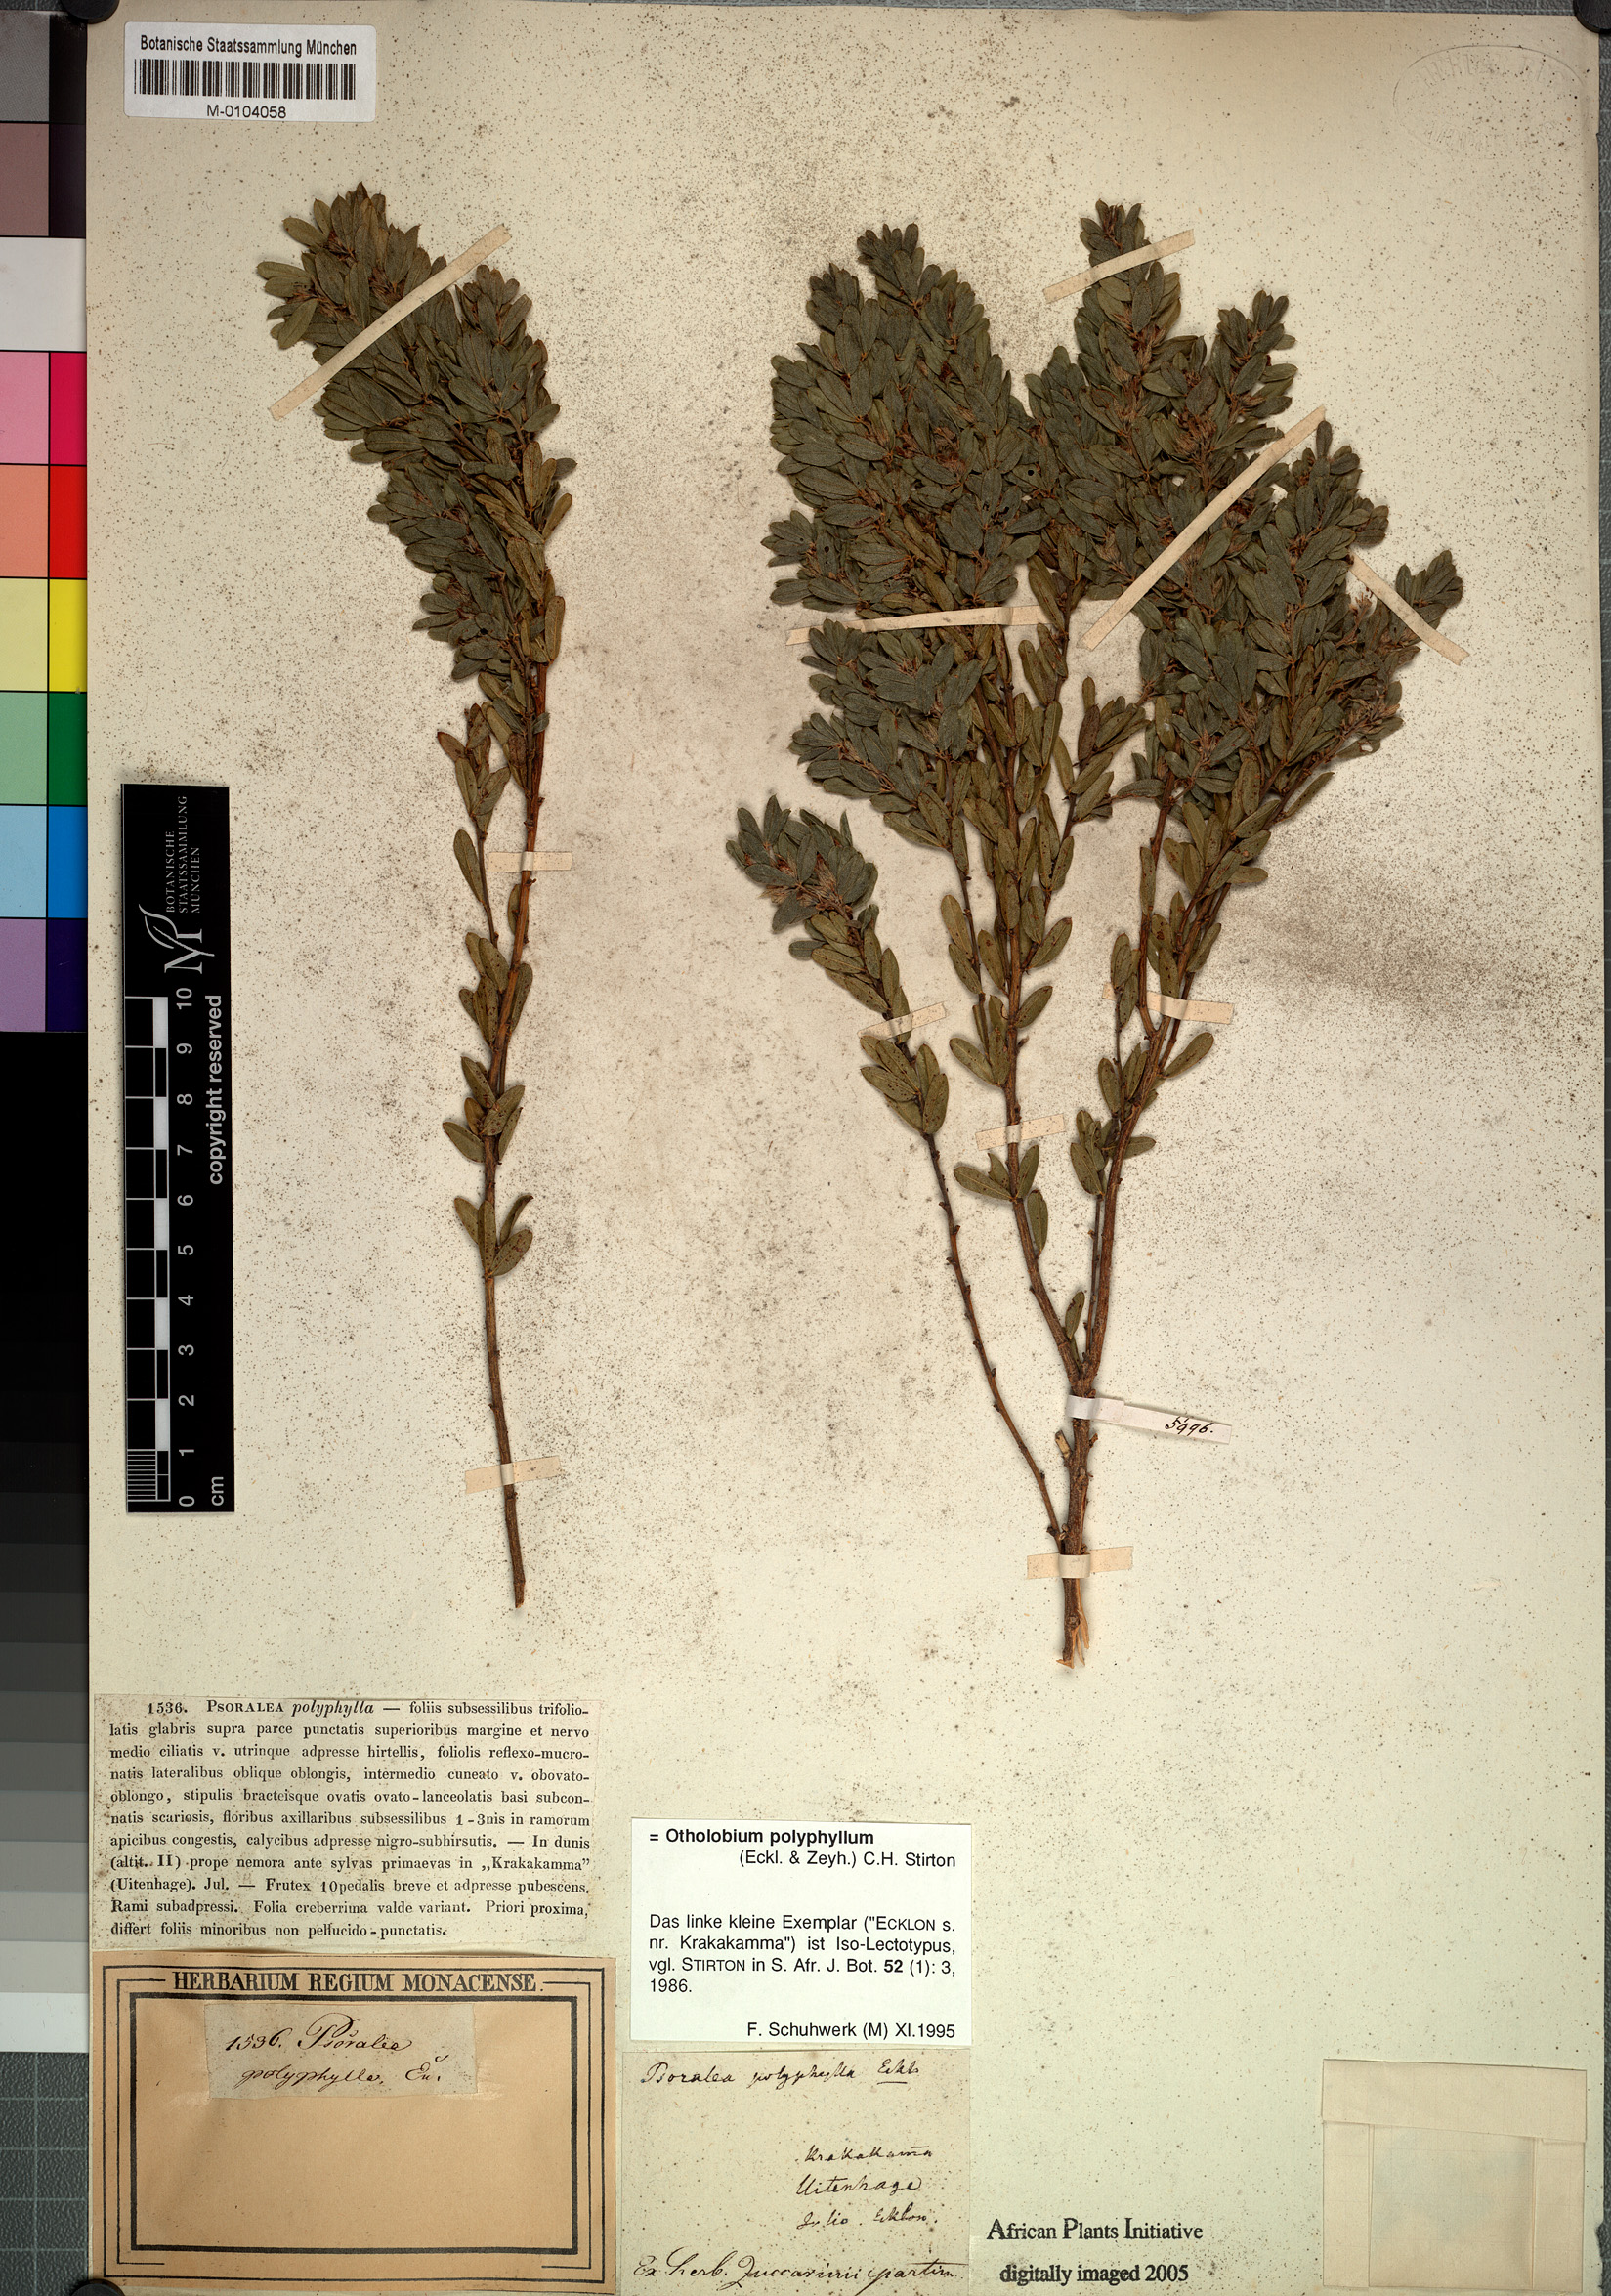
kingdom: Plantae
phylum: Tracheophyta
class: Magnoliopsida
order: Fabales
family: Fabaceae
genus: Psoralea
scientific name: Psoralea polyphylla
